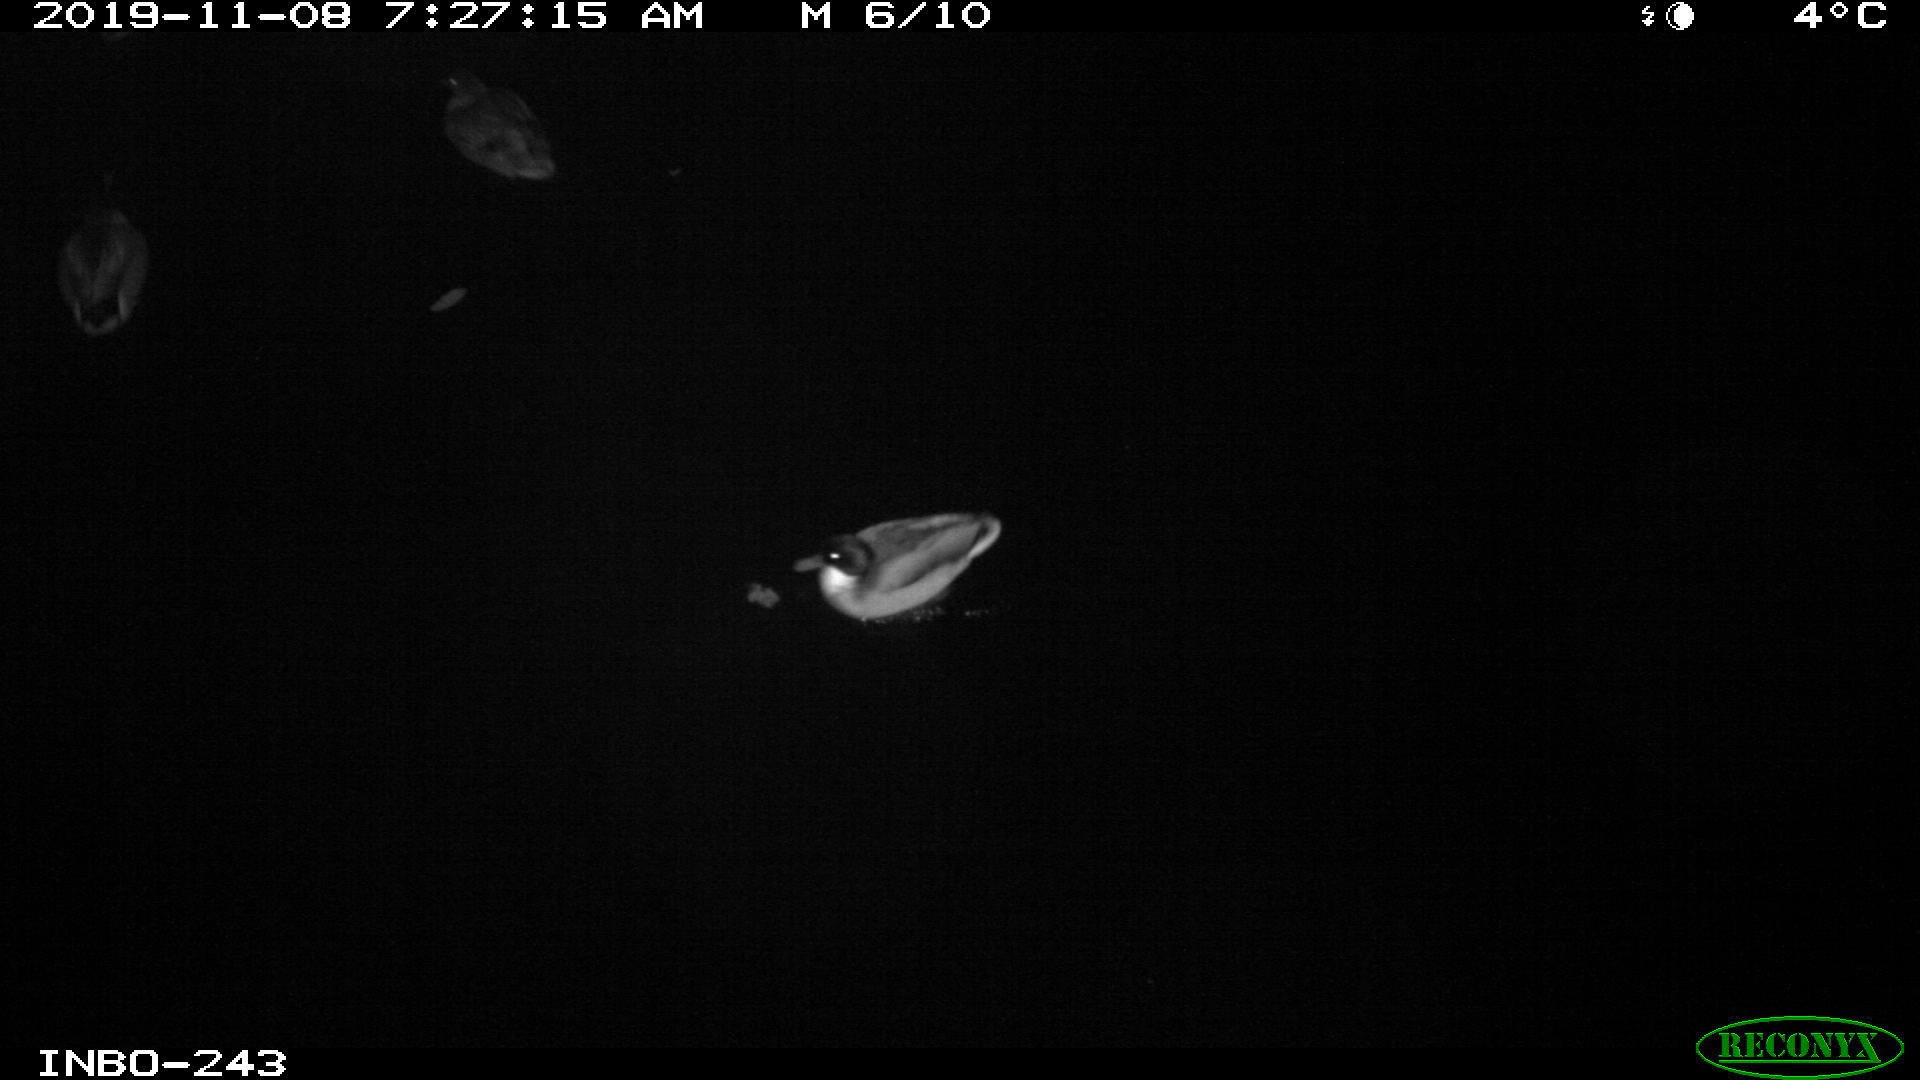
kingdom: Animalia
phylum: Chordata
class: Aves
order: Anseriformes
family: Anatidae
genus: Anas
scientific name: Anas platyrhynchos
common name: Mallard
